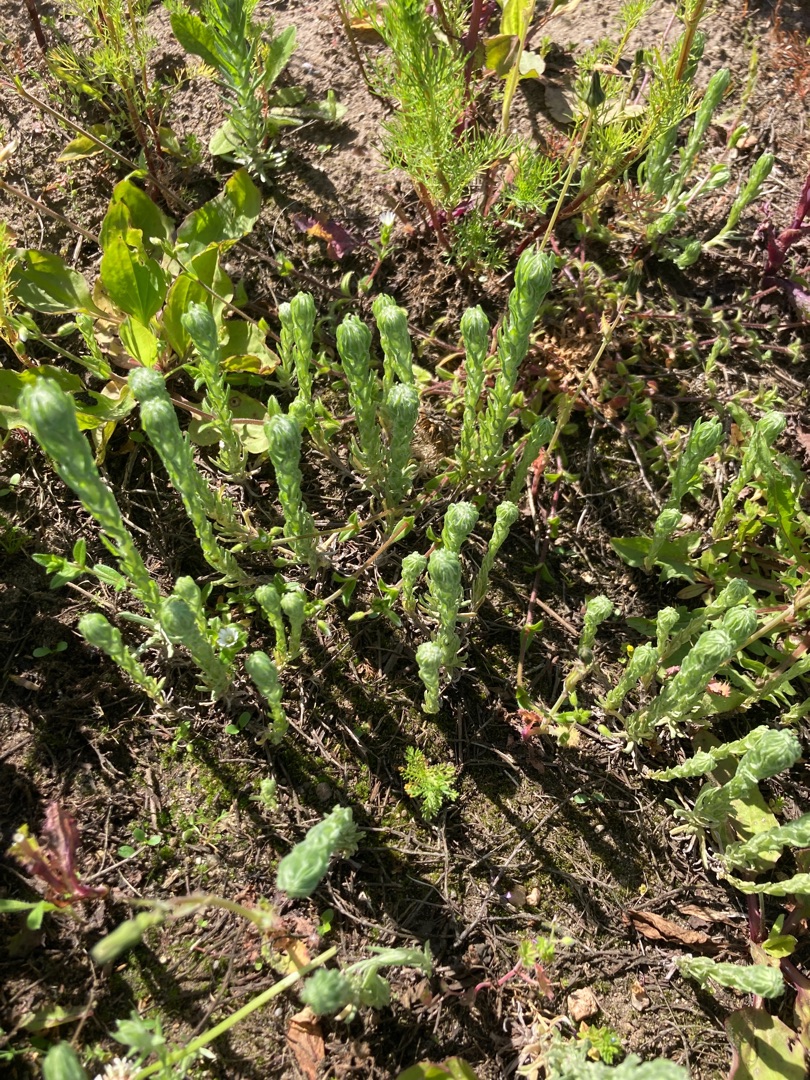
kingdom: Plantae
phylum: Tracheophyta
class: Magnoliopsida
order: Asterales
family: Asteraceae
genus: Filago
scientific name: Filago germanica
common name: Kugle-museurt
